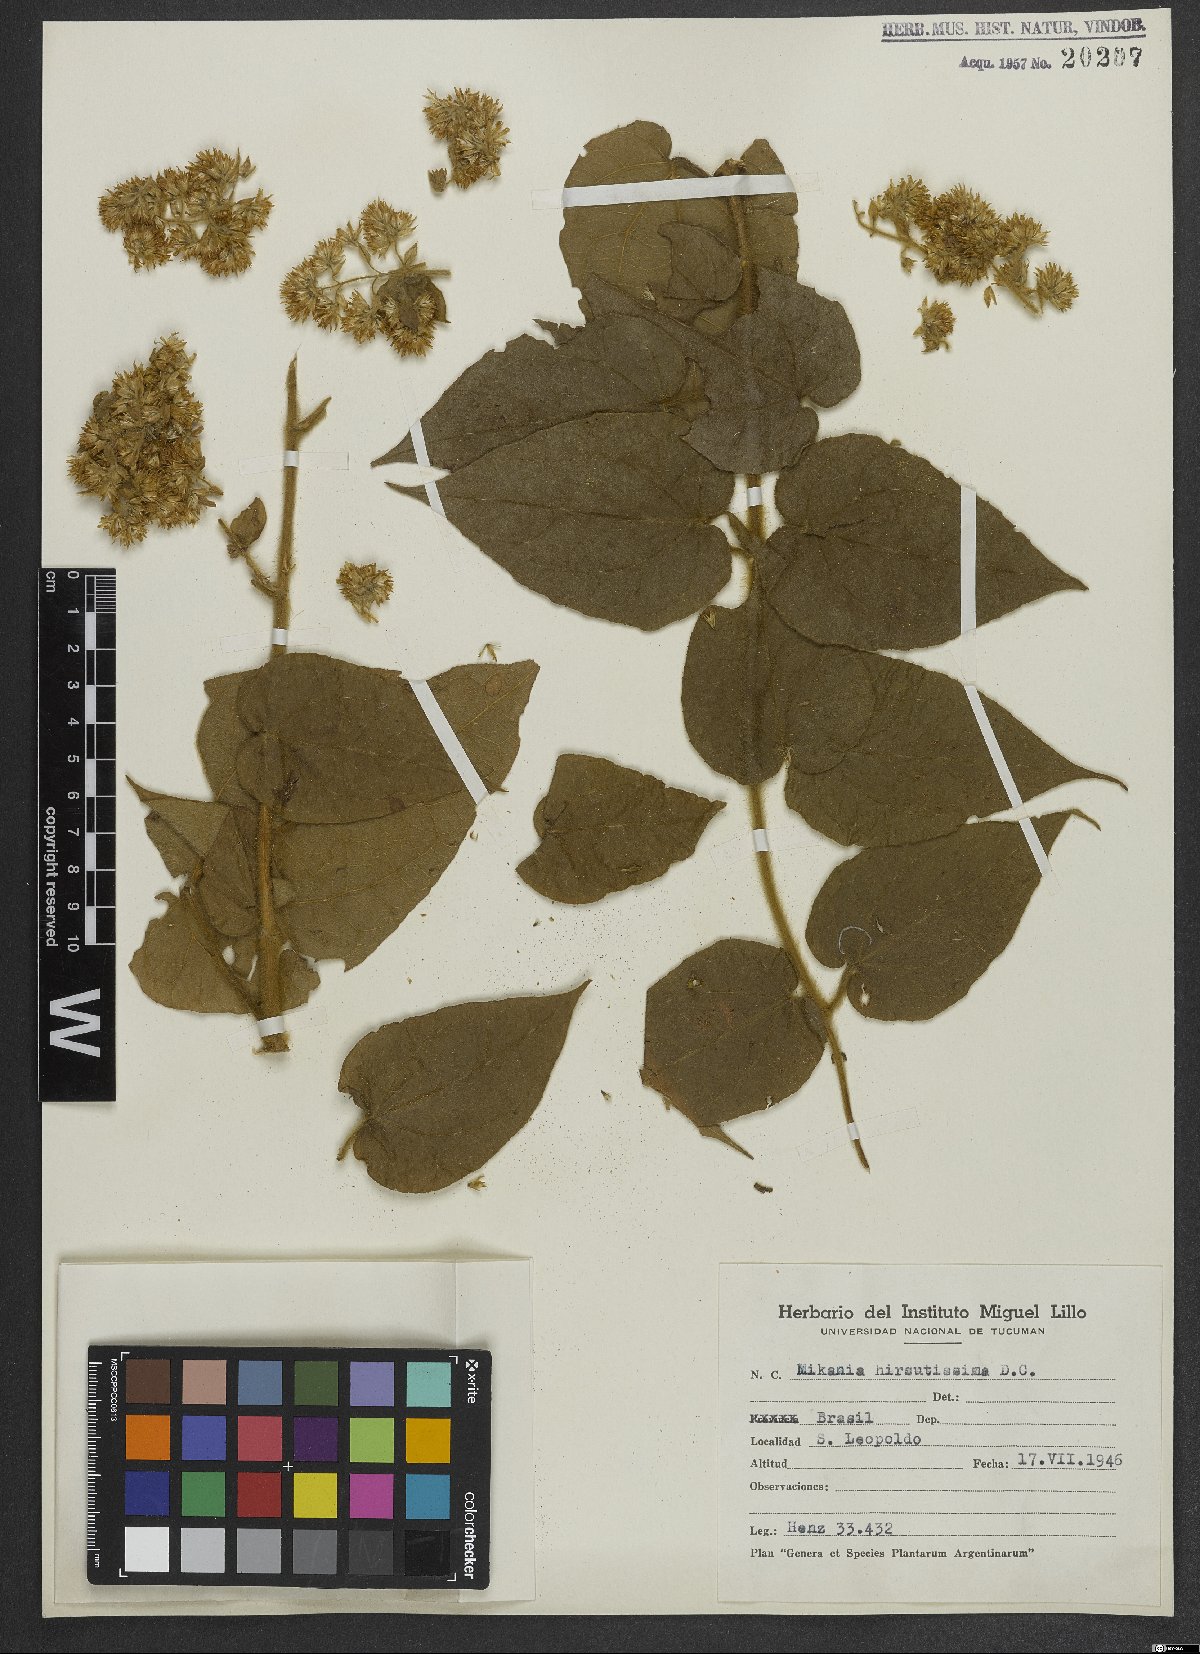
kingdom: Plantae
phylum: Tracheophyta
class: Magnoliopsida
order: Asterales
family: Asteraceae
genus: Mikania
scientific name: Mikania banisteriae
